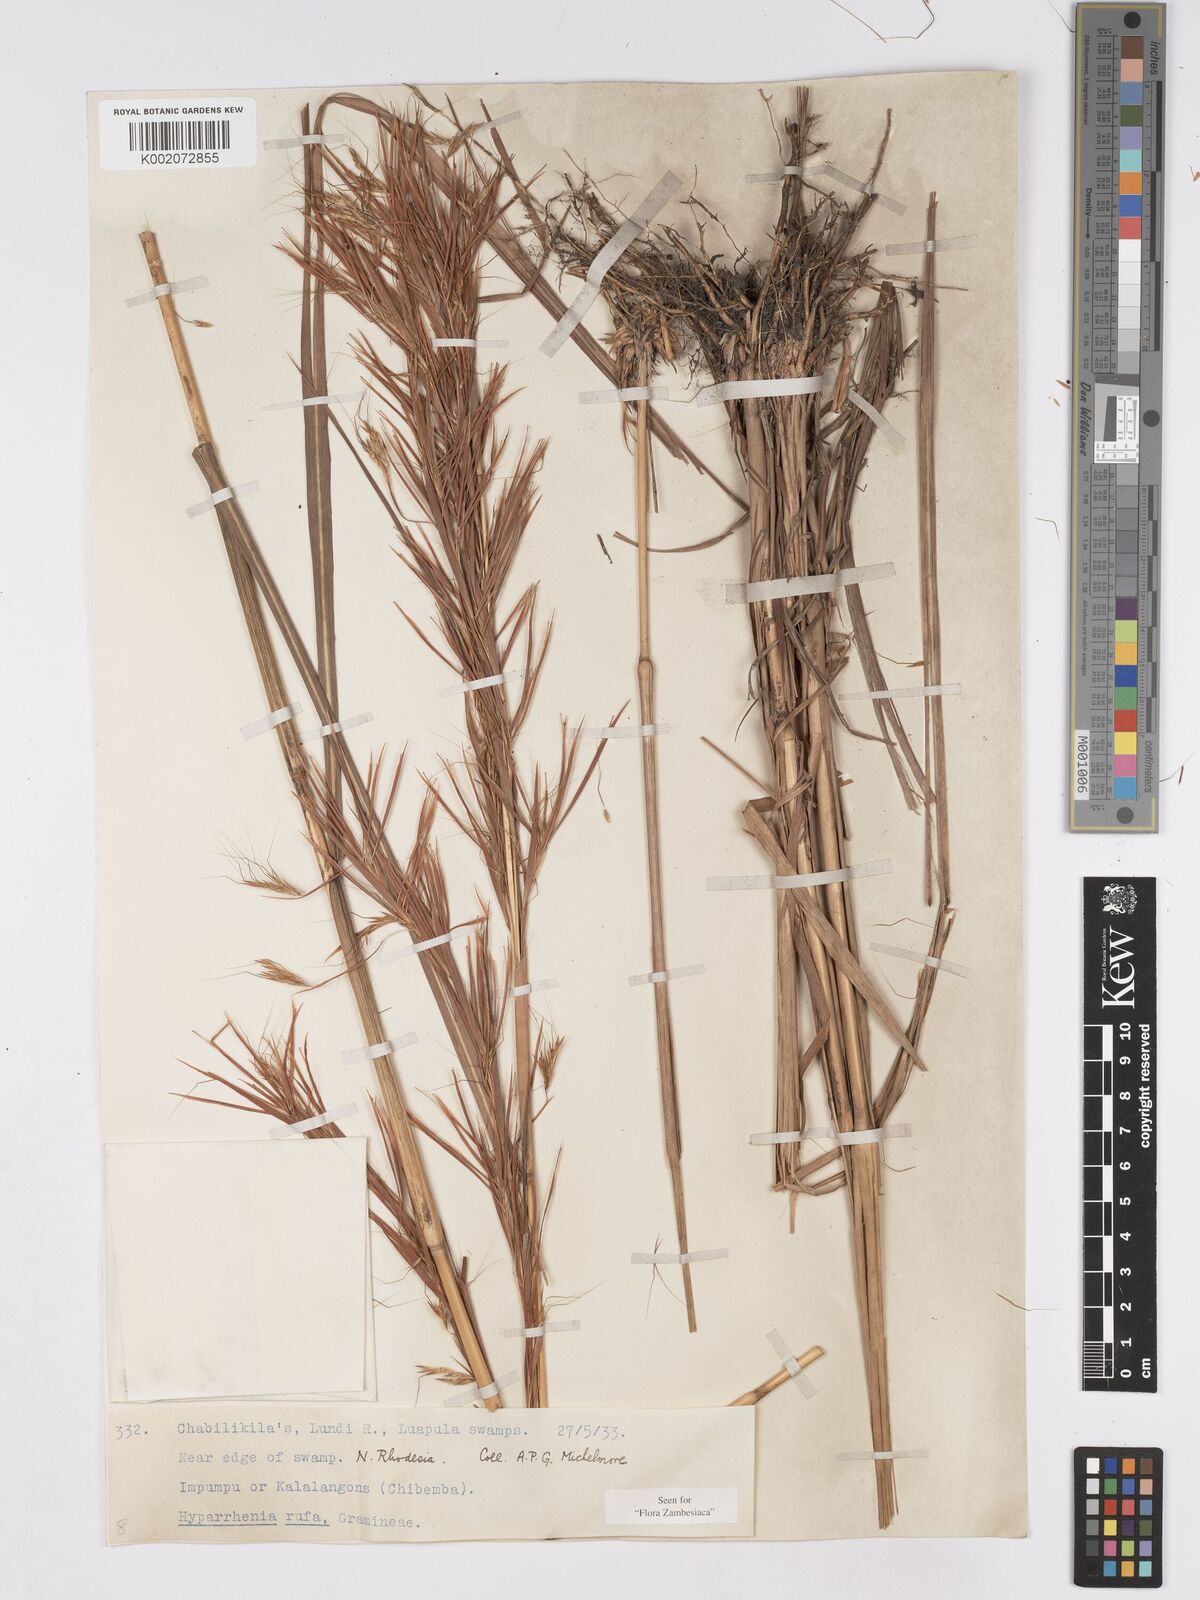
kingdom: Plantae
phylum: Tracheophyta
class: Liliopsida
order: Poales
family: Poaceae
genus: Hyparrhenia
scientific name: Hyparrhenia rufa
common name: Jaraguagrass
